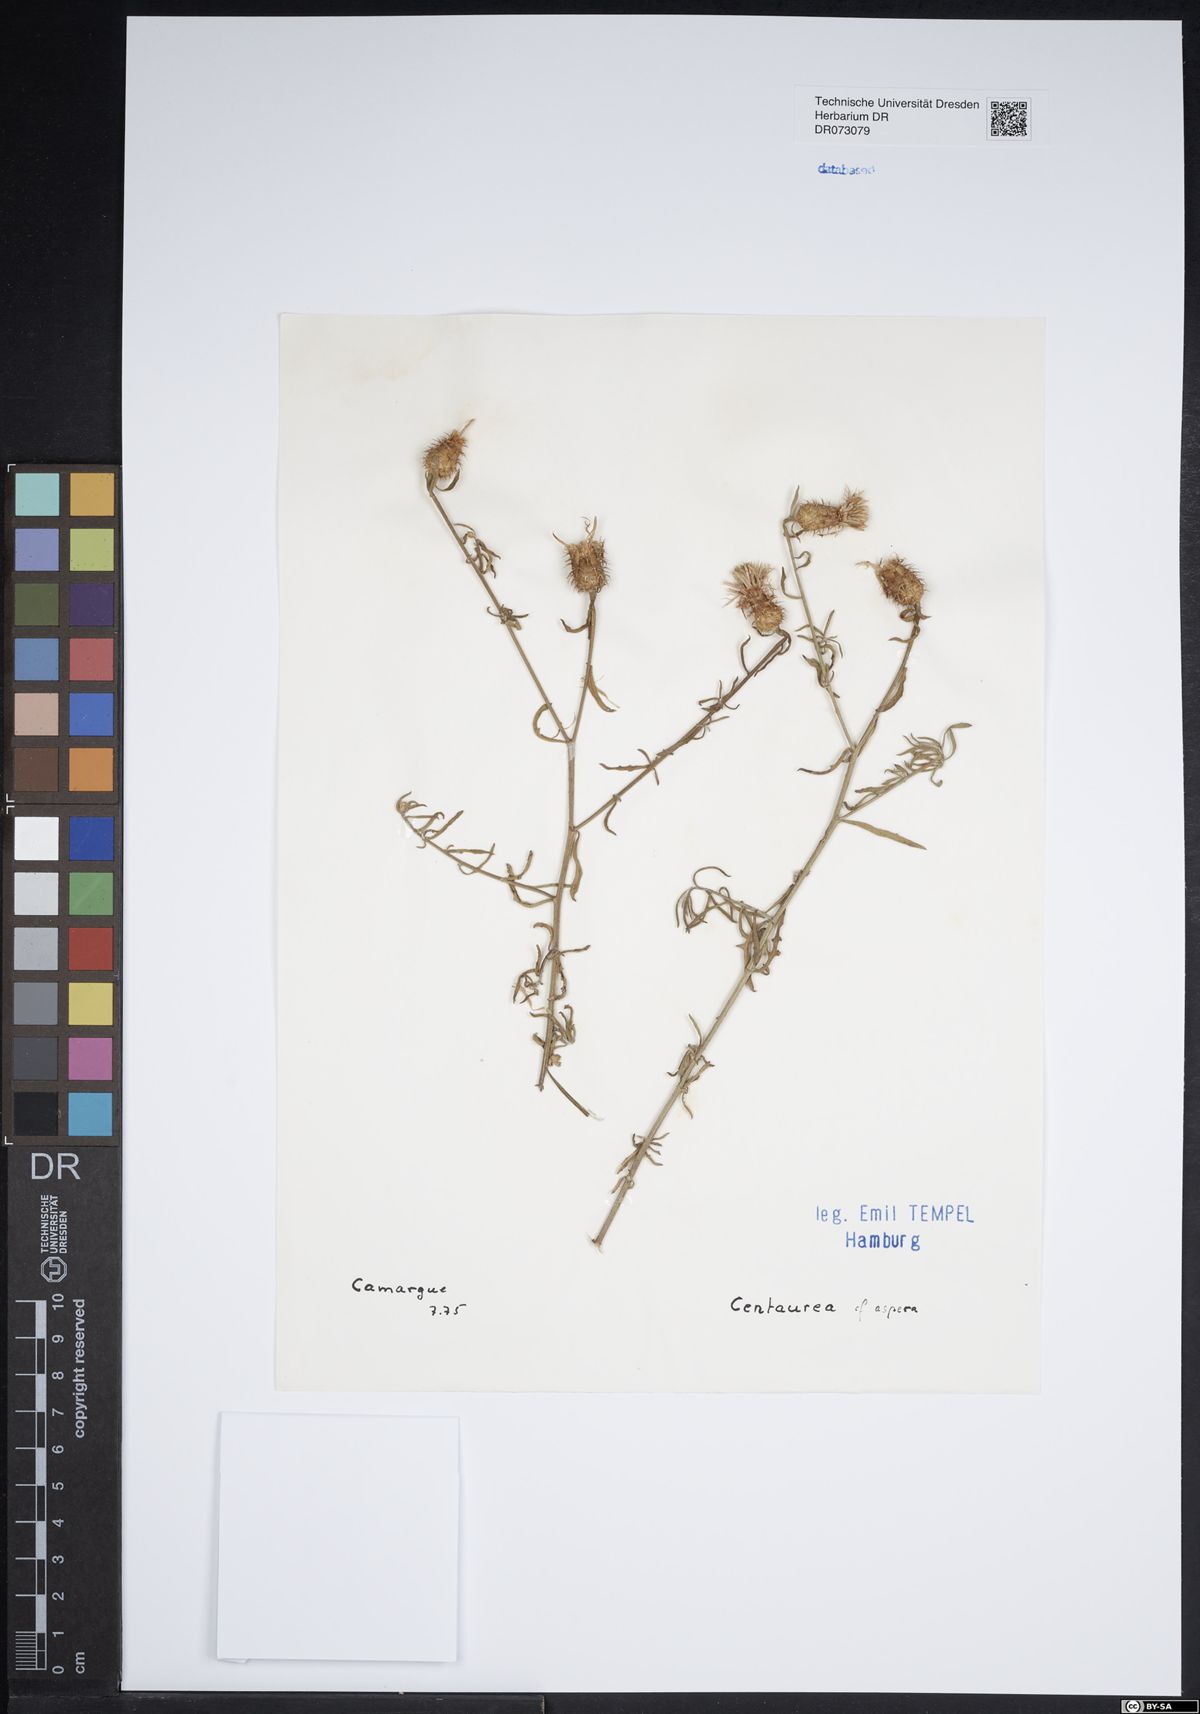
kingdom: Plantae
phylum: Tracheophyta
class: Magnoliopsida
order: Asterales
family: Asteraceae
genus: Vogtia
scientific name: Vogtia annua
